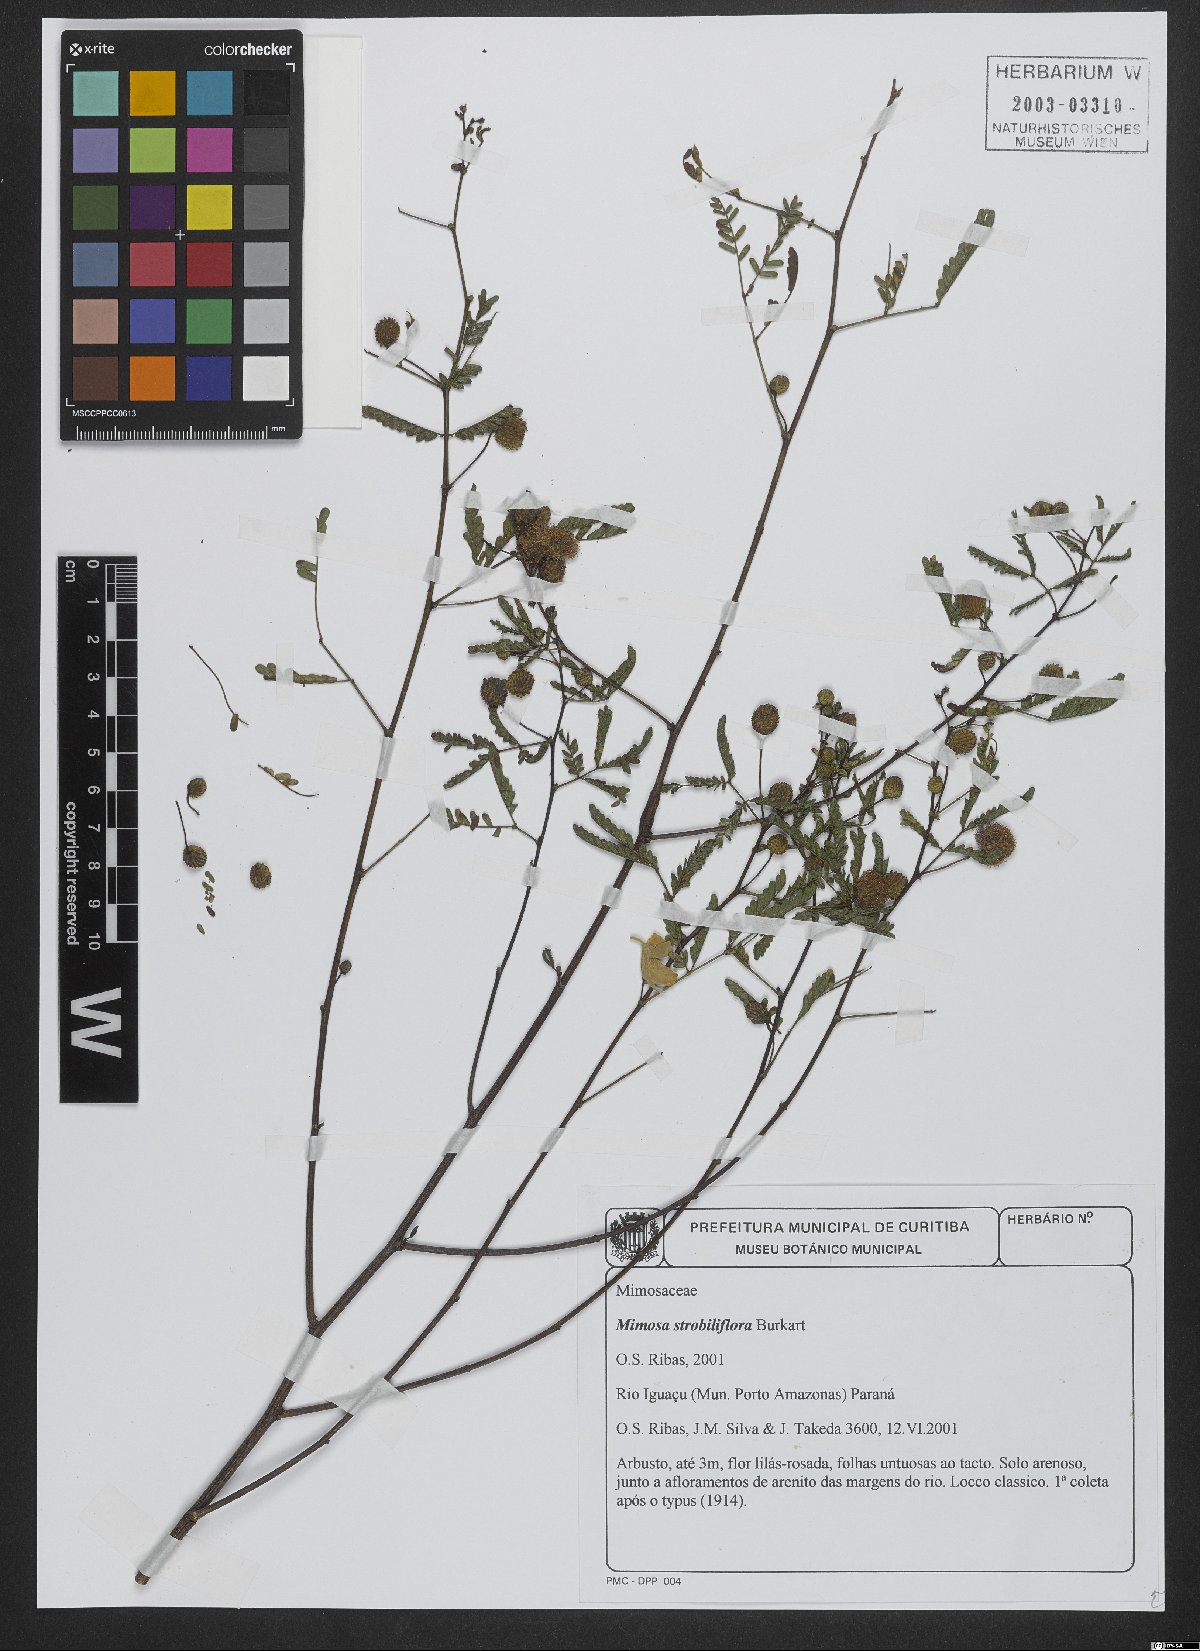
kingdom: Plantae
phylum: Tracheophyta
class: Magnoliopsida
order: Fabales
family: Fabaceae
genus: Mimosa
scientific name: Mimosa strobiliflora
